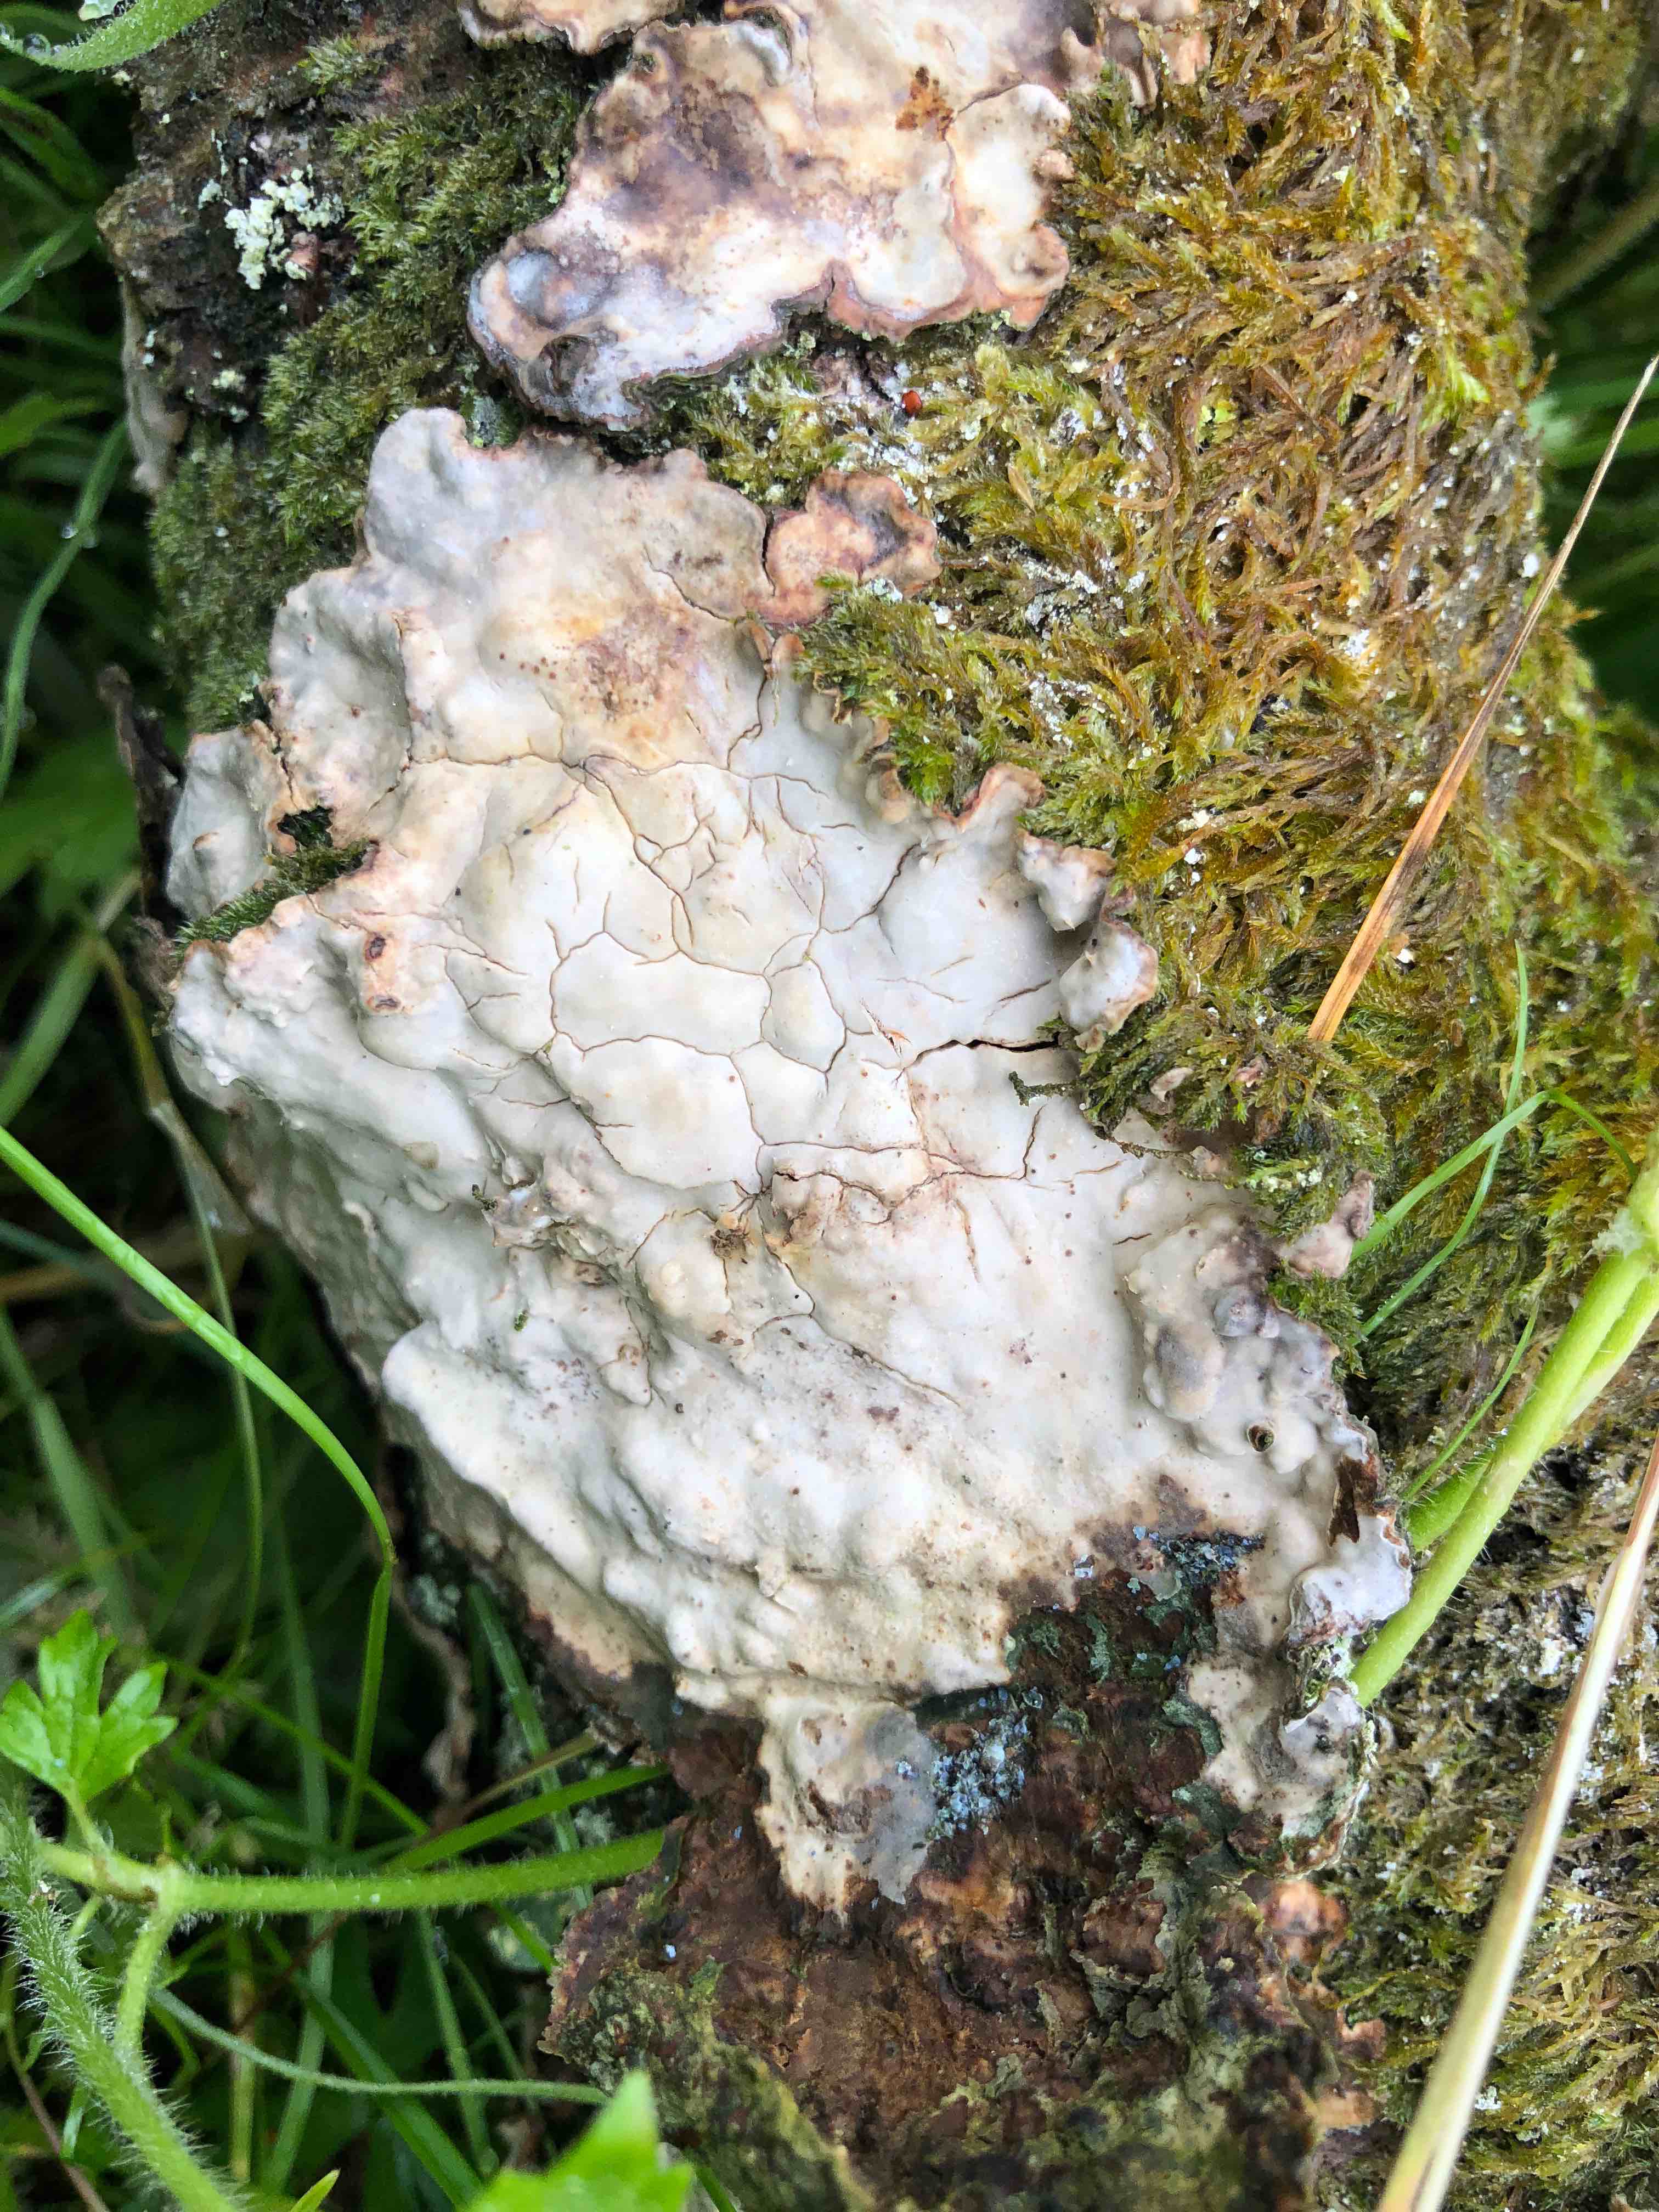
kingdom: Fungi
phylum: Basidiomycota
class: Agaricomycetes
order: Russulales
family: Stereaceae
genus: Stereum
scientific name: Stereum rugosum
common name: rynket lædersvamp
